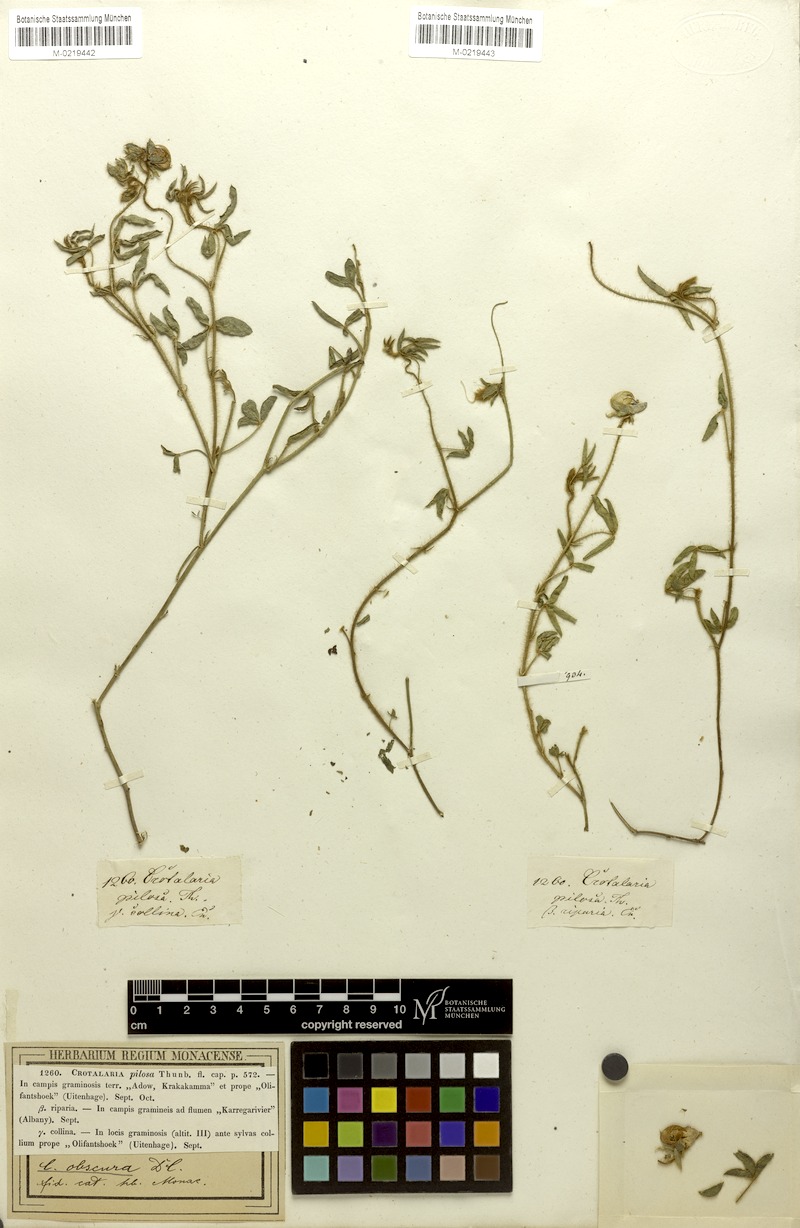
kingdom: Plantae
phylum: Tracheophyta
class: Magnoliopsida
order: Fabales
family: Fabaceae
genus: Crotalaria
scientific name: Crotalaria obscura
